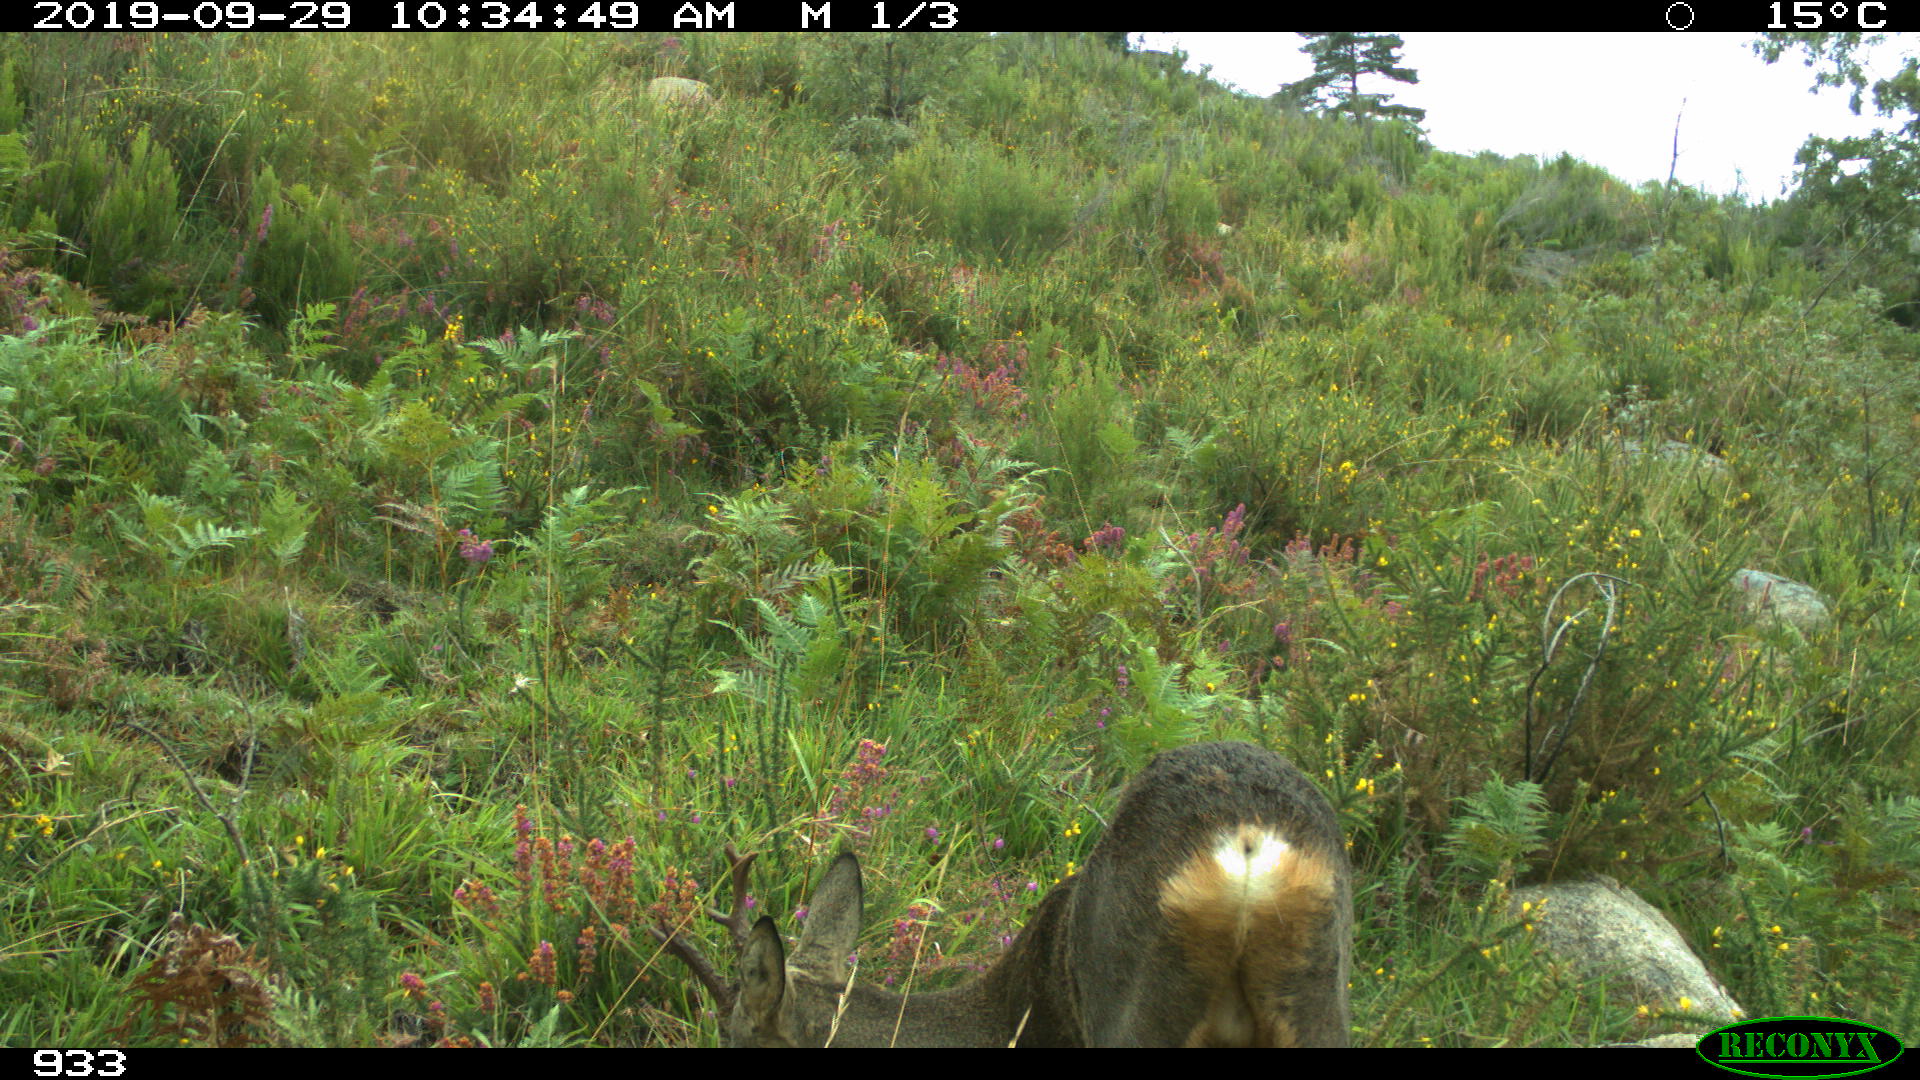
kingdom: Animalia
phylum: Chordata
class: Mammalia
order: Artiodactyla
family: Cervidae
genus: Capreolus
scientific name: Capreolus capreolus
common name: Western roe deer
